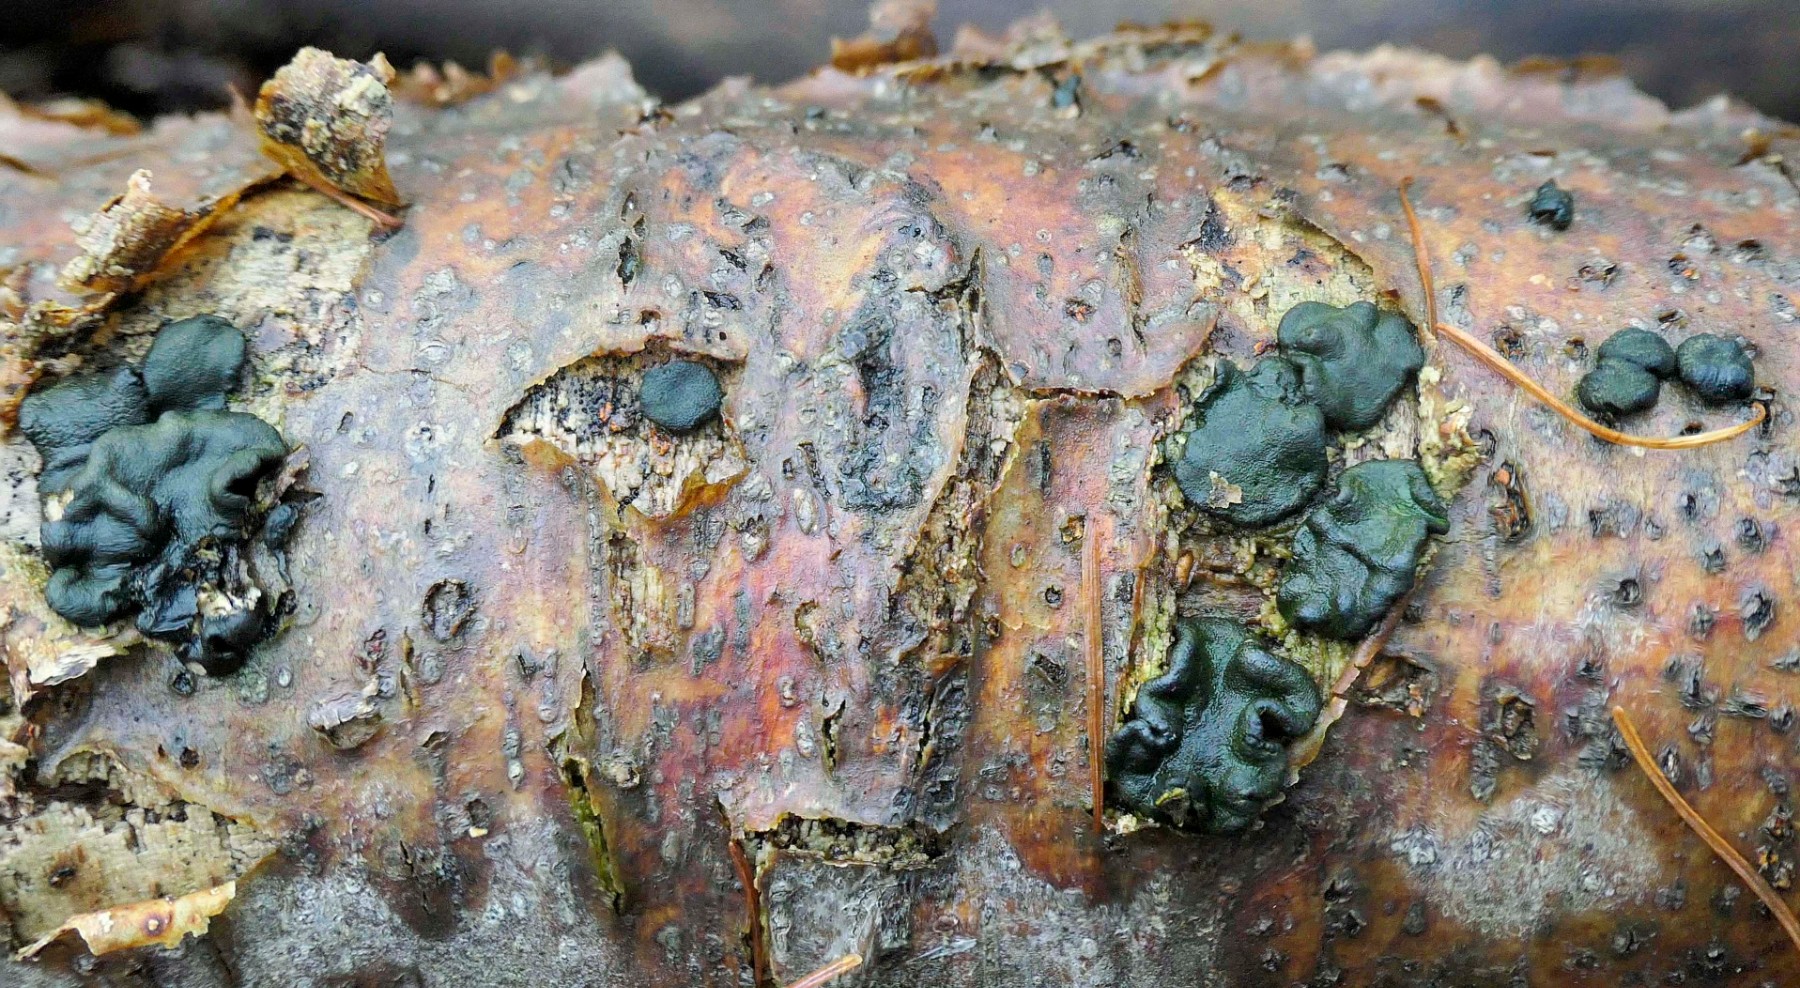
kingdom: Fungi
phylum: Ascomycota
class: Sordariomycetes
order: Hypocreales
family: Hypocreaceae
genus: Trichoderma
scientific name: Trichoderma
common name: kødkerne
